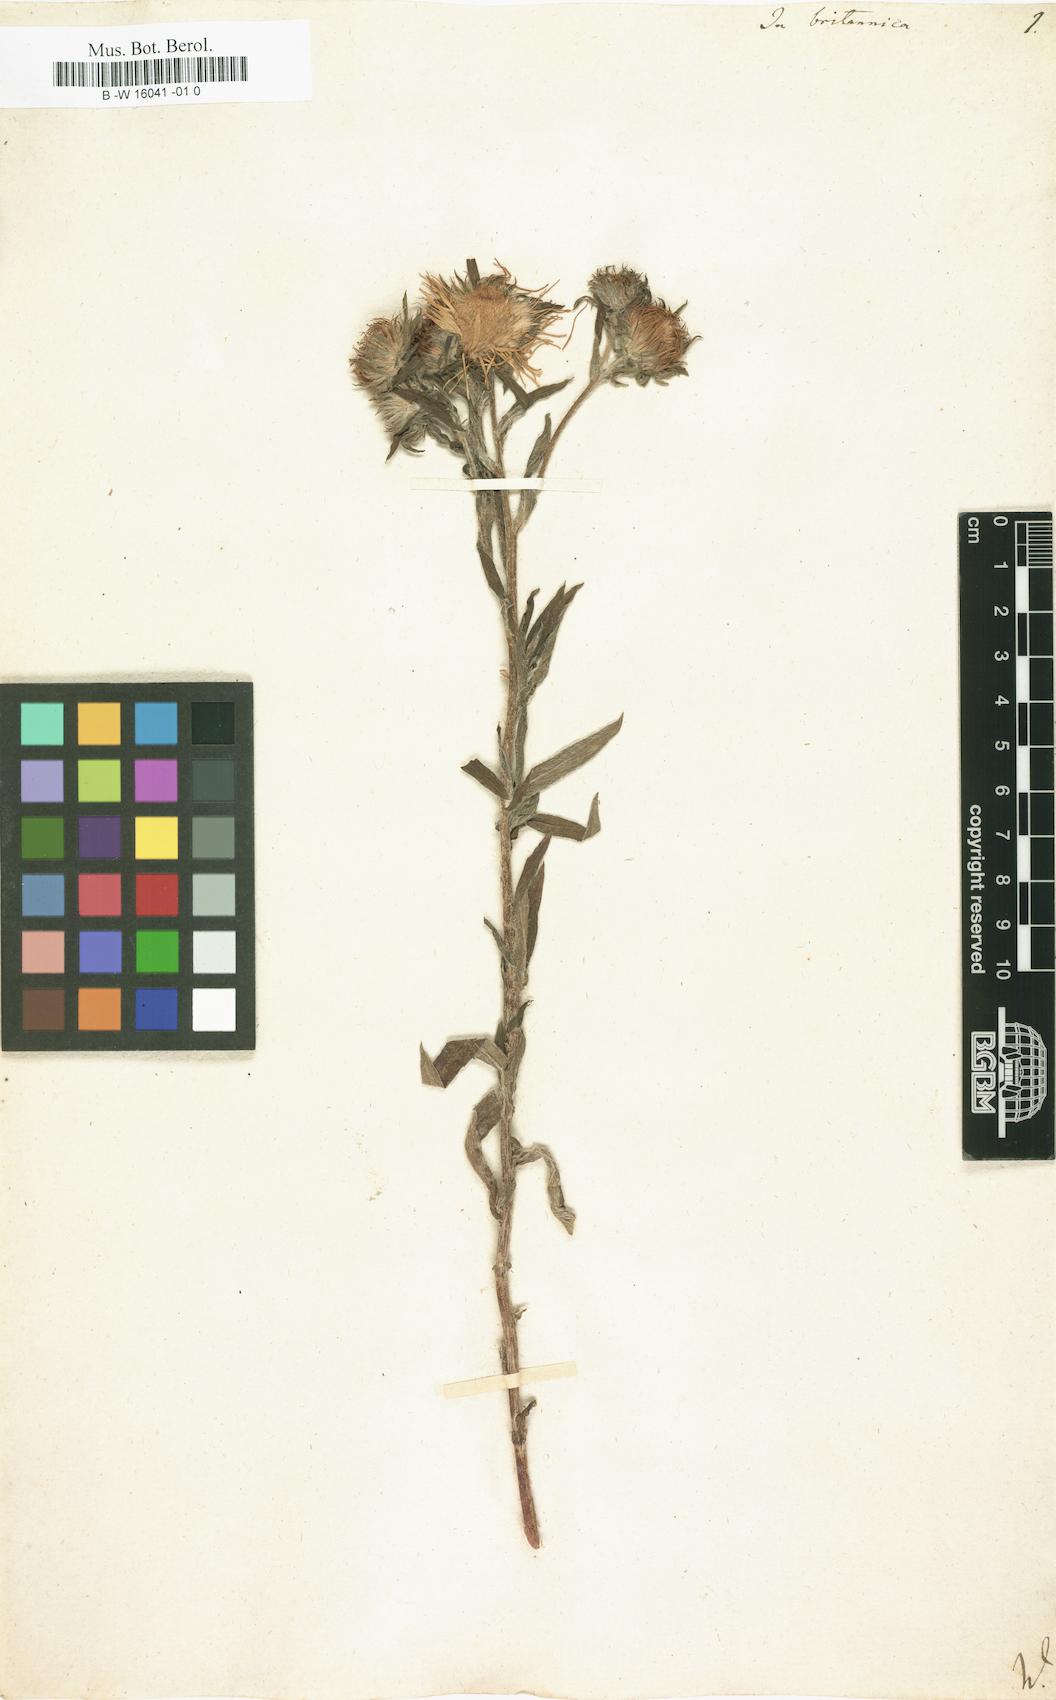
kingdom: Plantae
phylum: Tracheophyta
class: Magnoliopsida
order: Asterales
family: Asteraceae
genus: Inula
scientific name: Inula britannica
